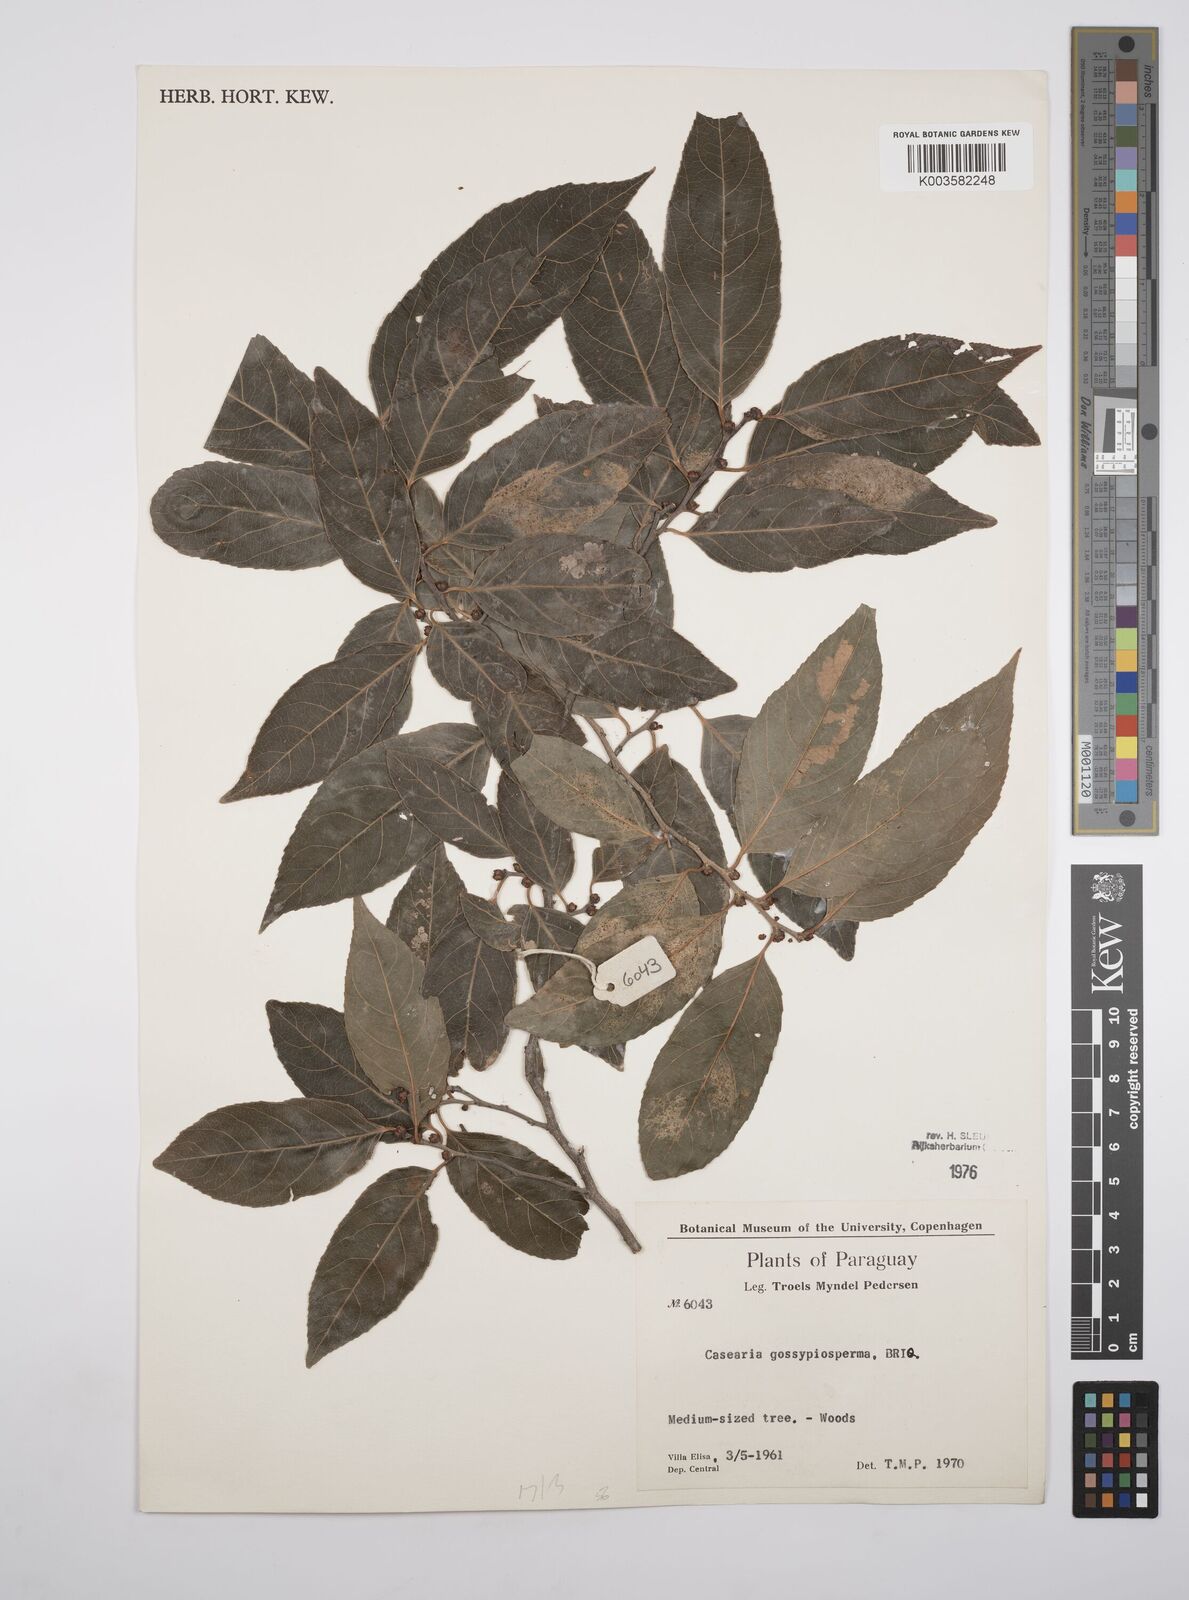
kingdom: Plantae
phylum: Tracheophyta
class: Magnoliopsida
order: Malpighiales
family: Salicaceae
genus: Casearia
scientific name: Casearia gossypiosperma
